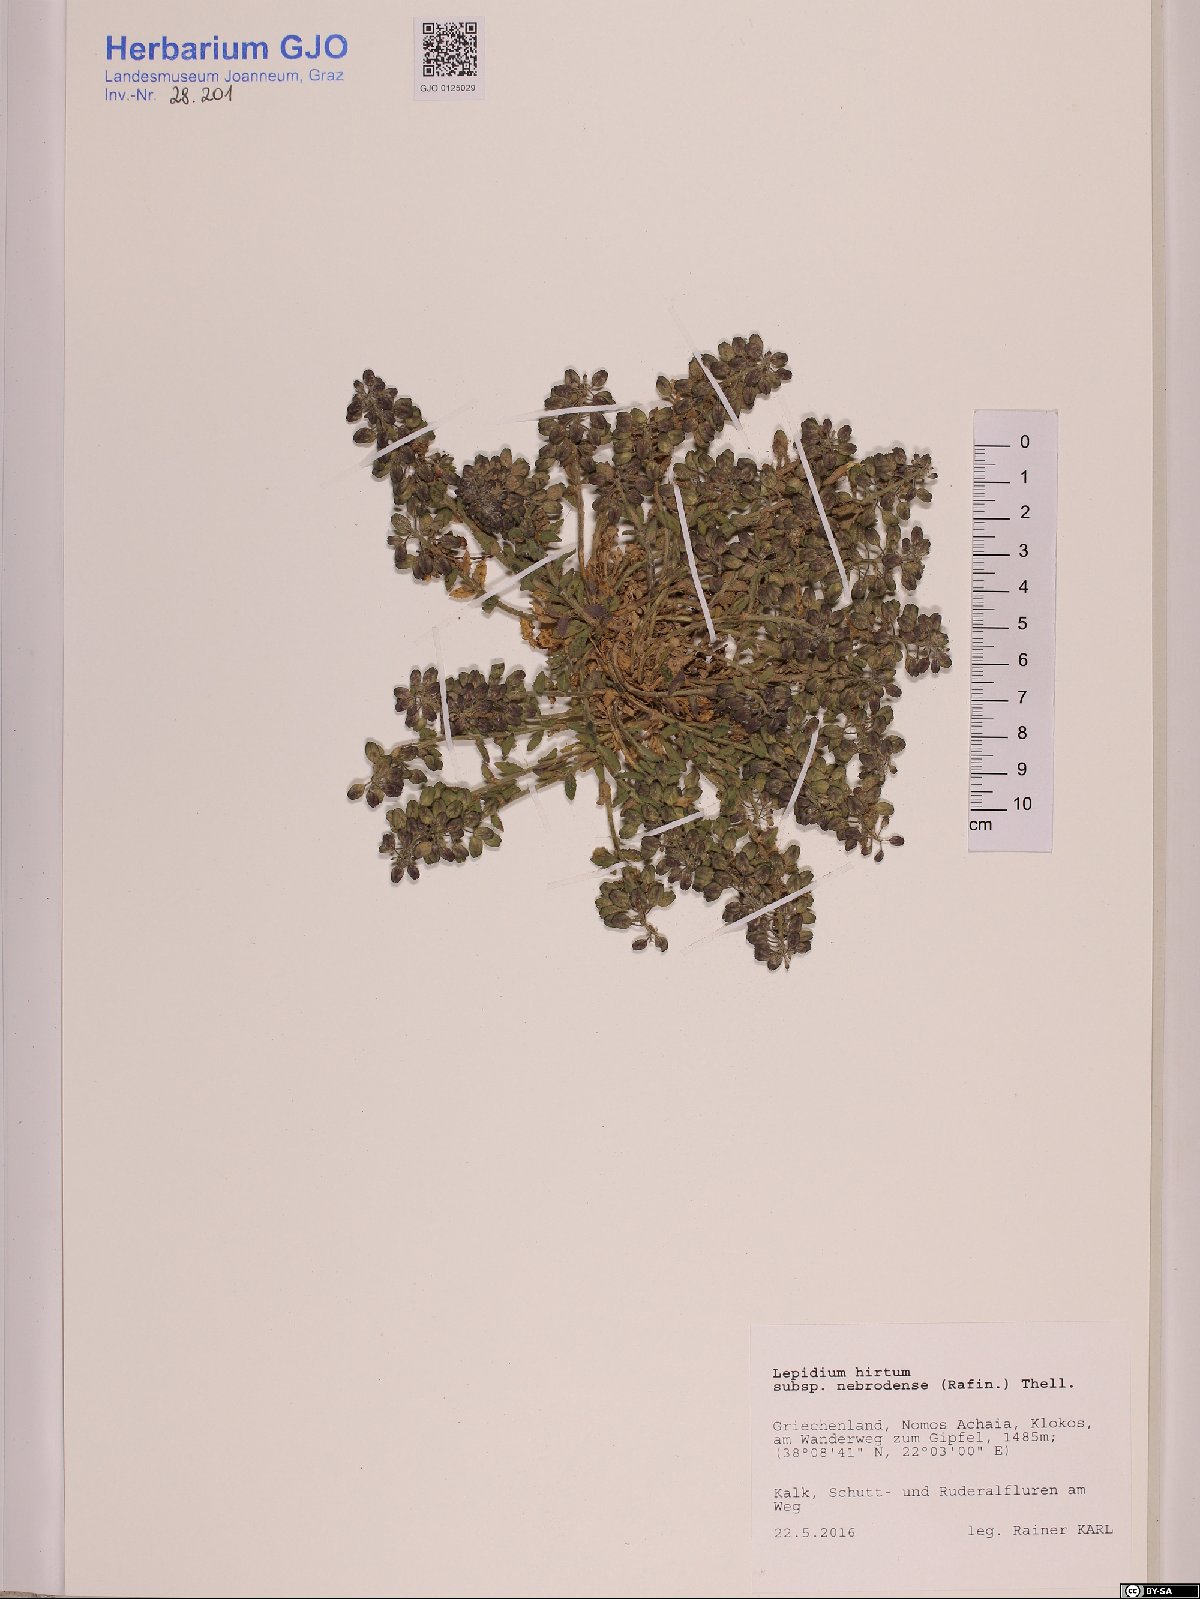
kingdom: Plantae
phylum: Tracheophyta
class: Magnoliopsida
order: Brassicales
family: Brassicaceae
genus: Lepidium
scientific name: Lepidium hirtum
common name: Mediterranean pepperweed
